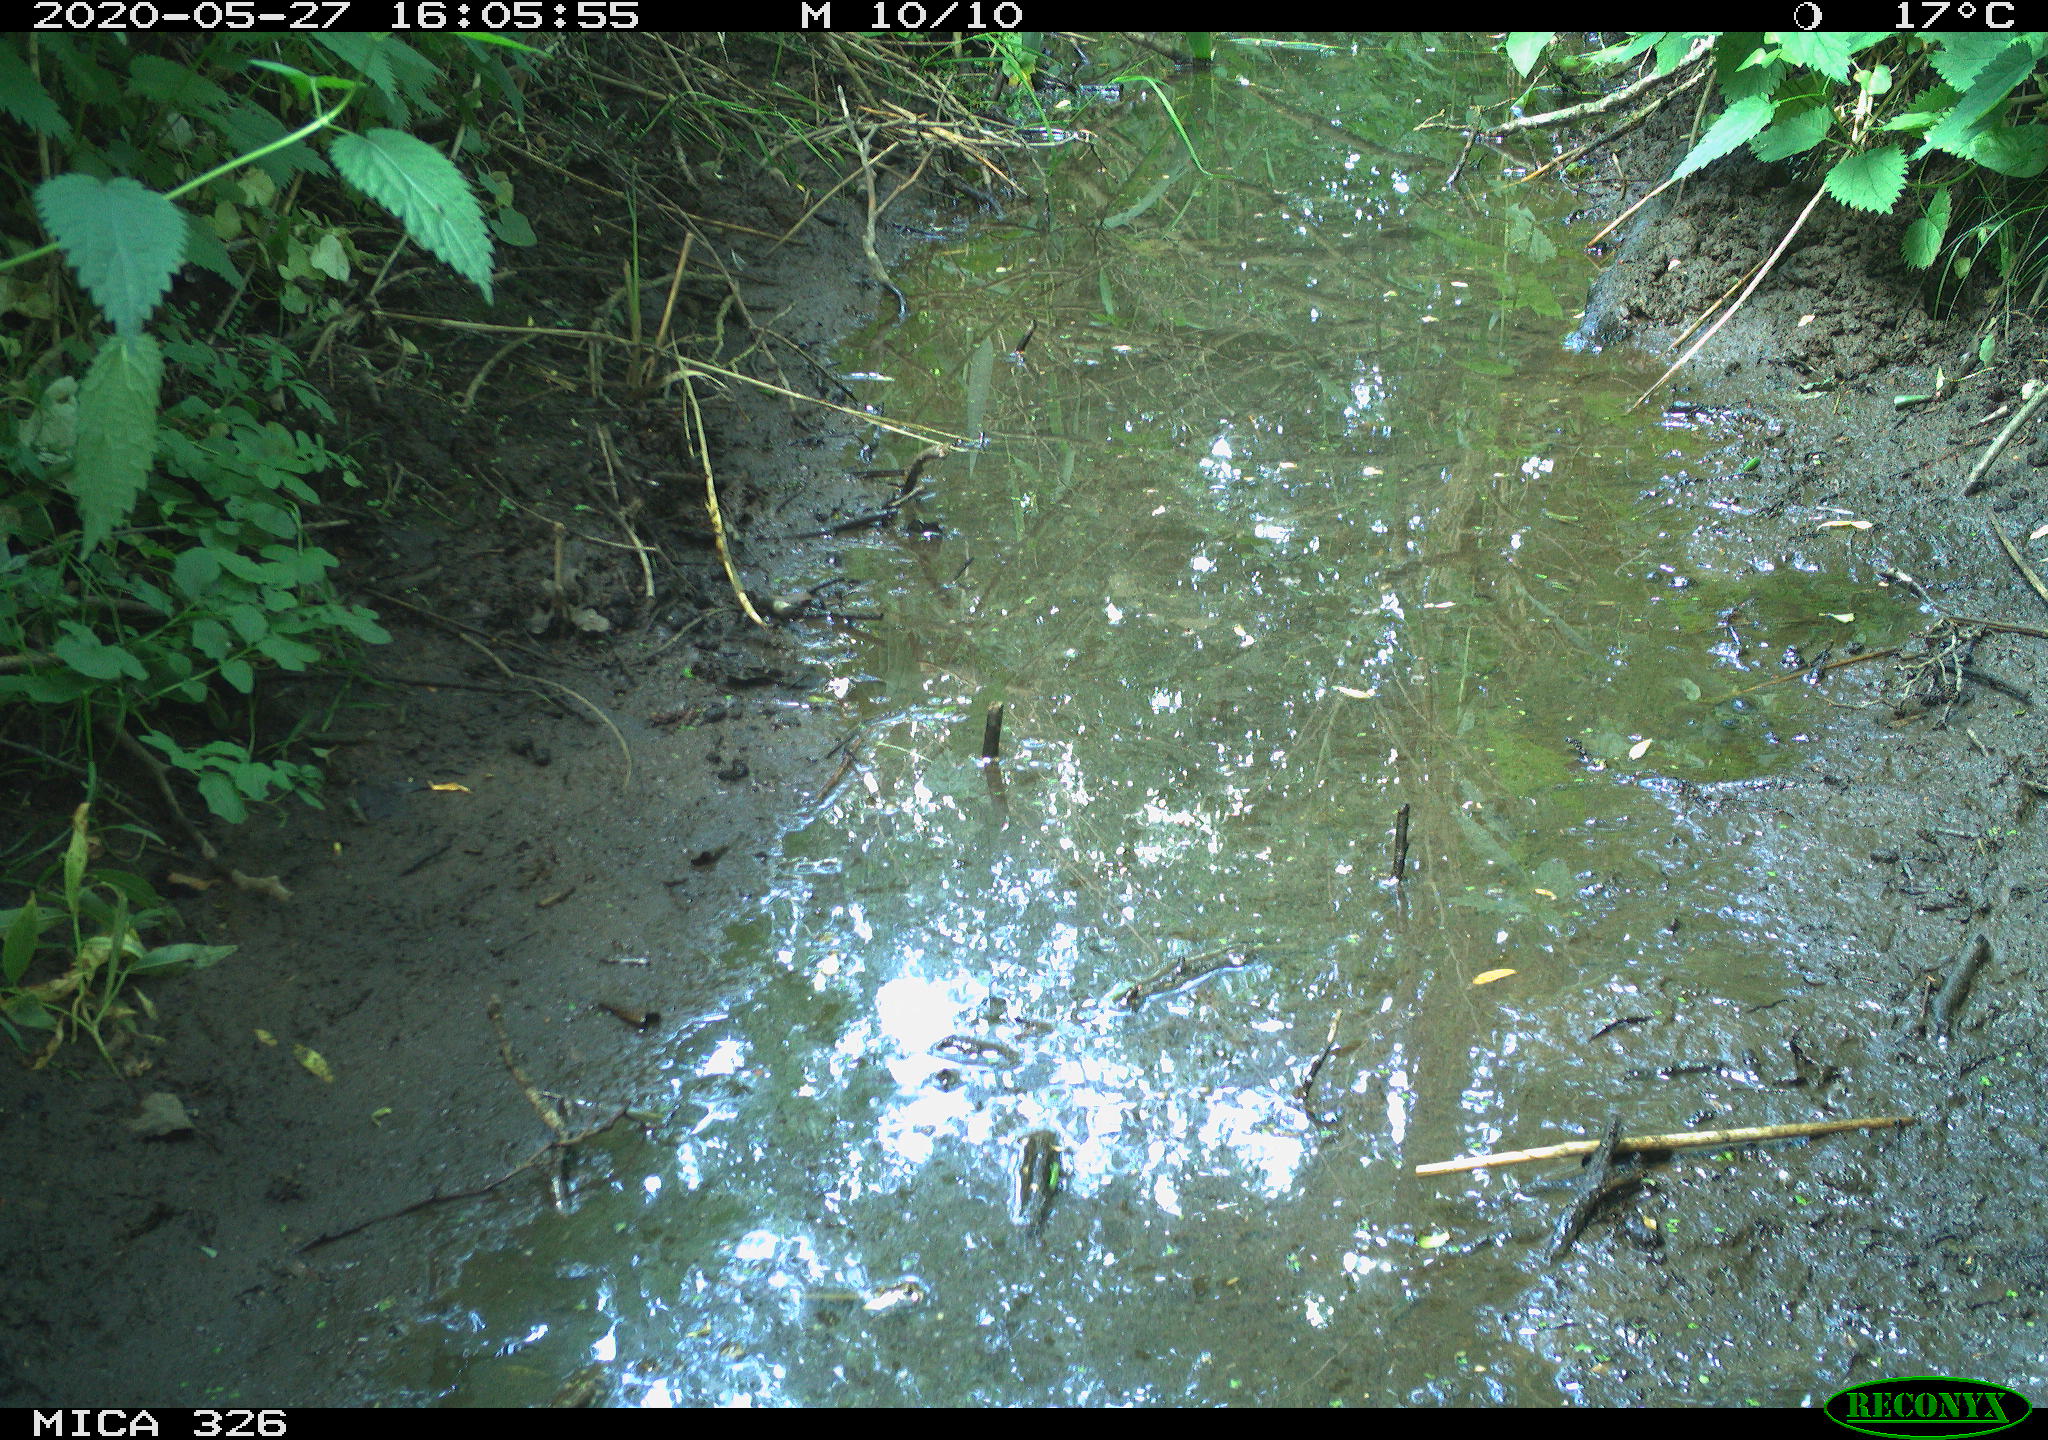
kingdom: Animalia
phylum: Chordata
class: Aves
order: Passeriformes
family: Turdidae
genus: Turdus
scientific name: Turdus merula
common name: Common blackbird
